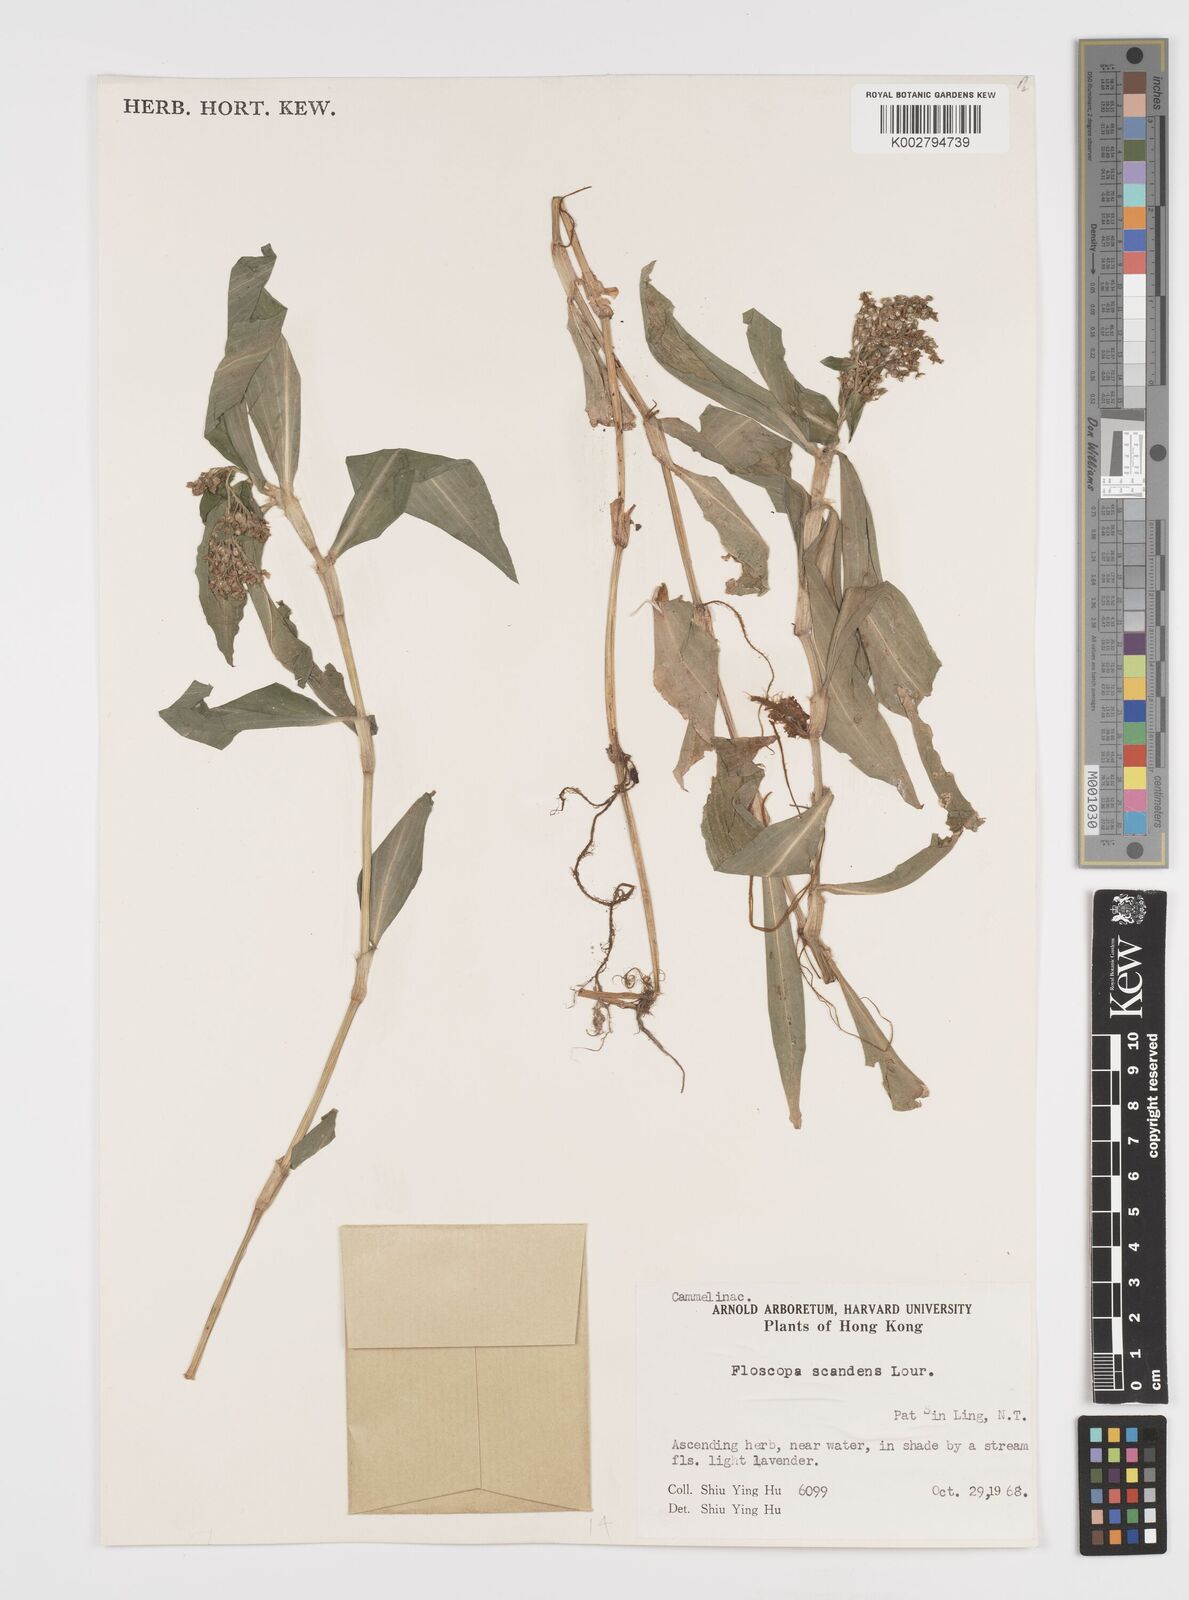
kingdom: Plantae
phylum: Tracheophyta
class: Liliopsida
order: Commelinales
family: Commelinaceae
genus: Floscopa
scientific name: Floscopa scandens
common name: Climbing flower cup
